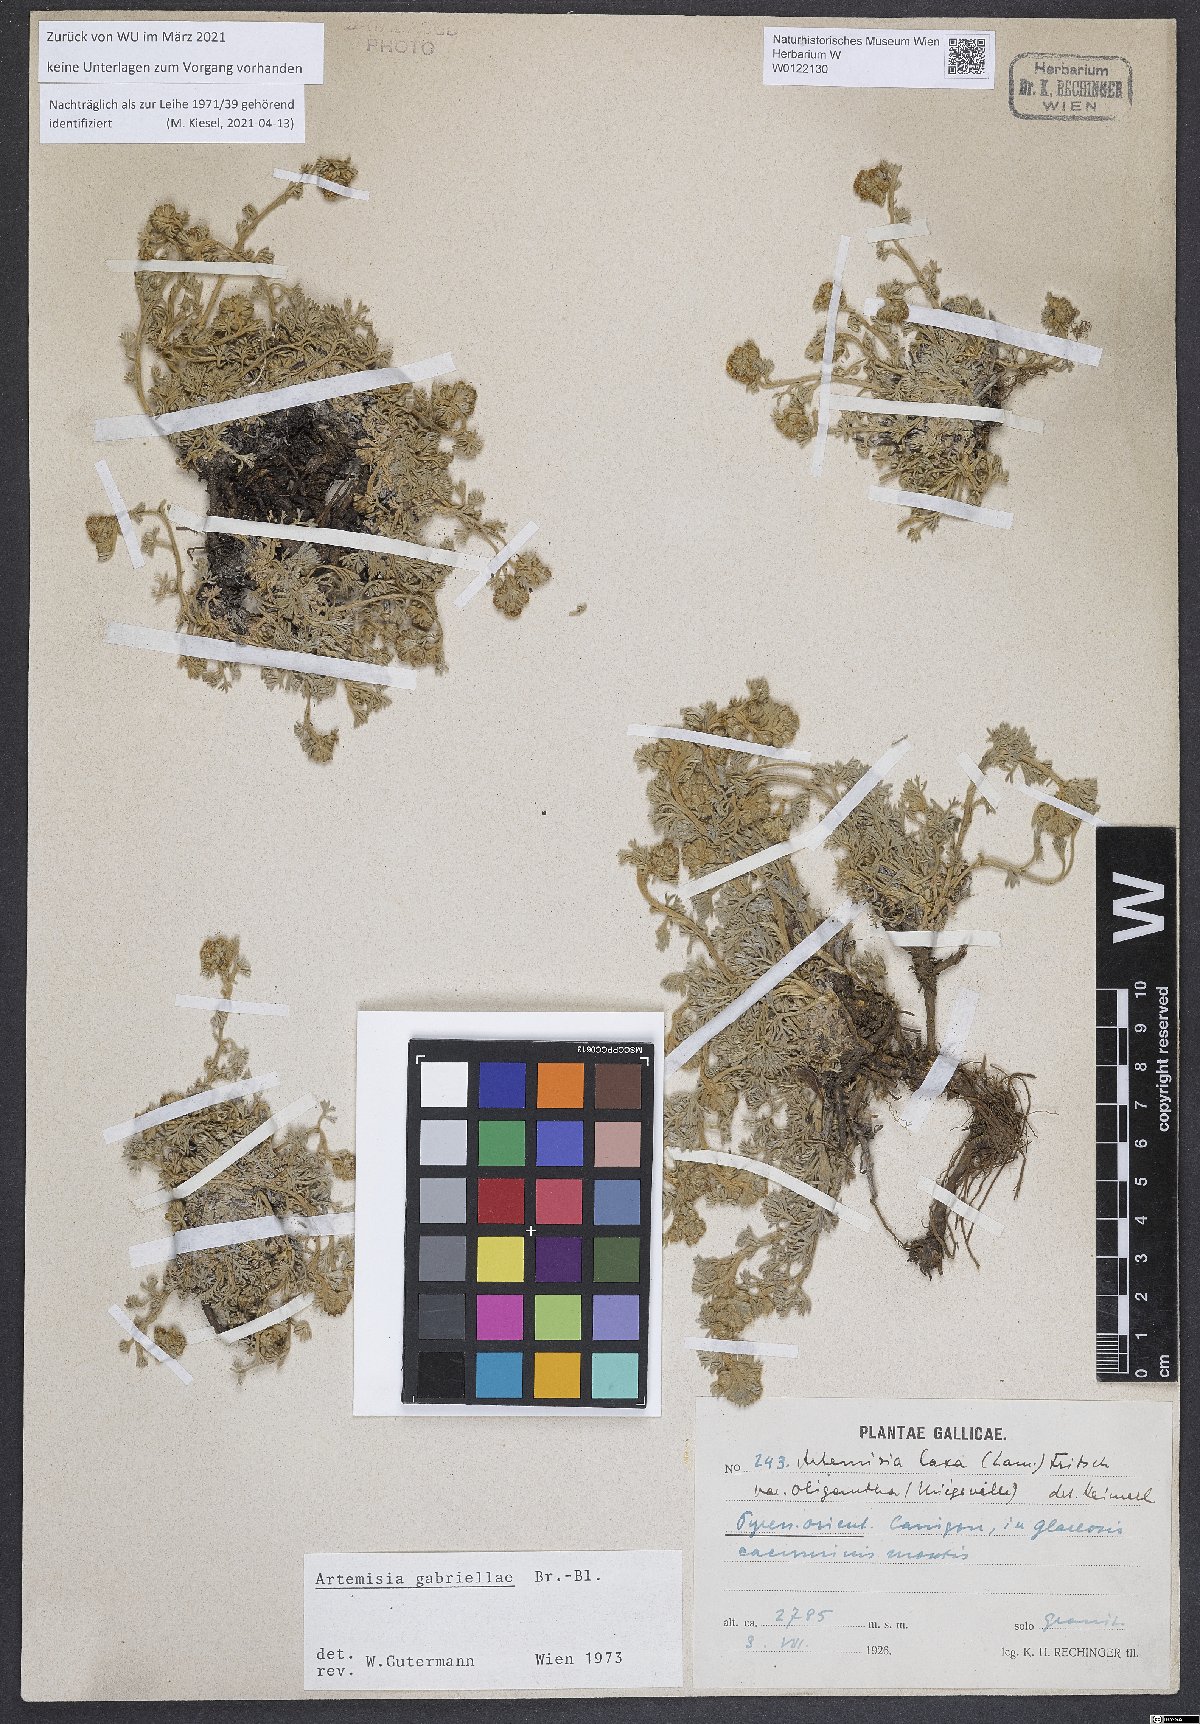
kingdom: Plantae
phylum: Tracheophyta
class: Magnoliopsida
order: Asterales
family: Asteraceae
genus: Artemisia
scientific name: Artemisia mutellina
